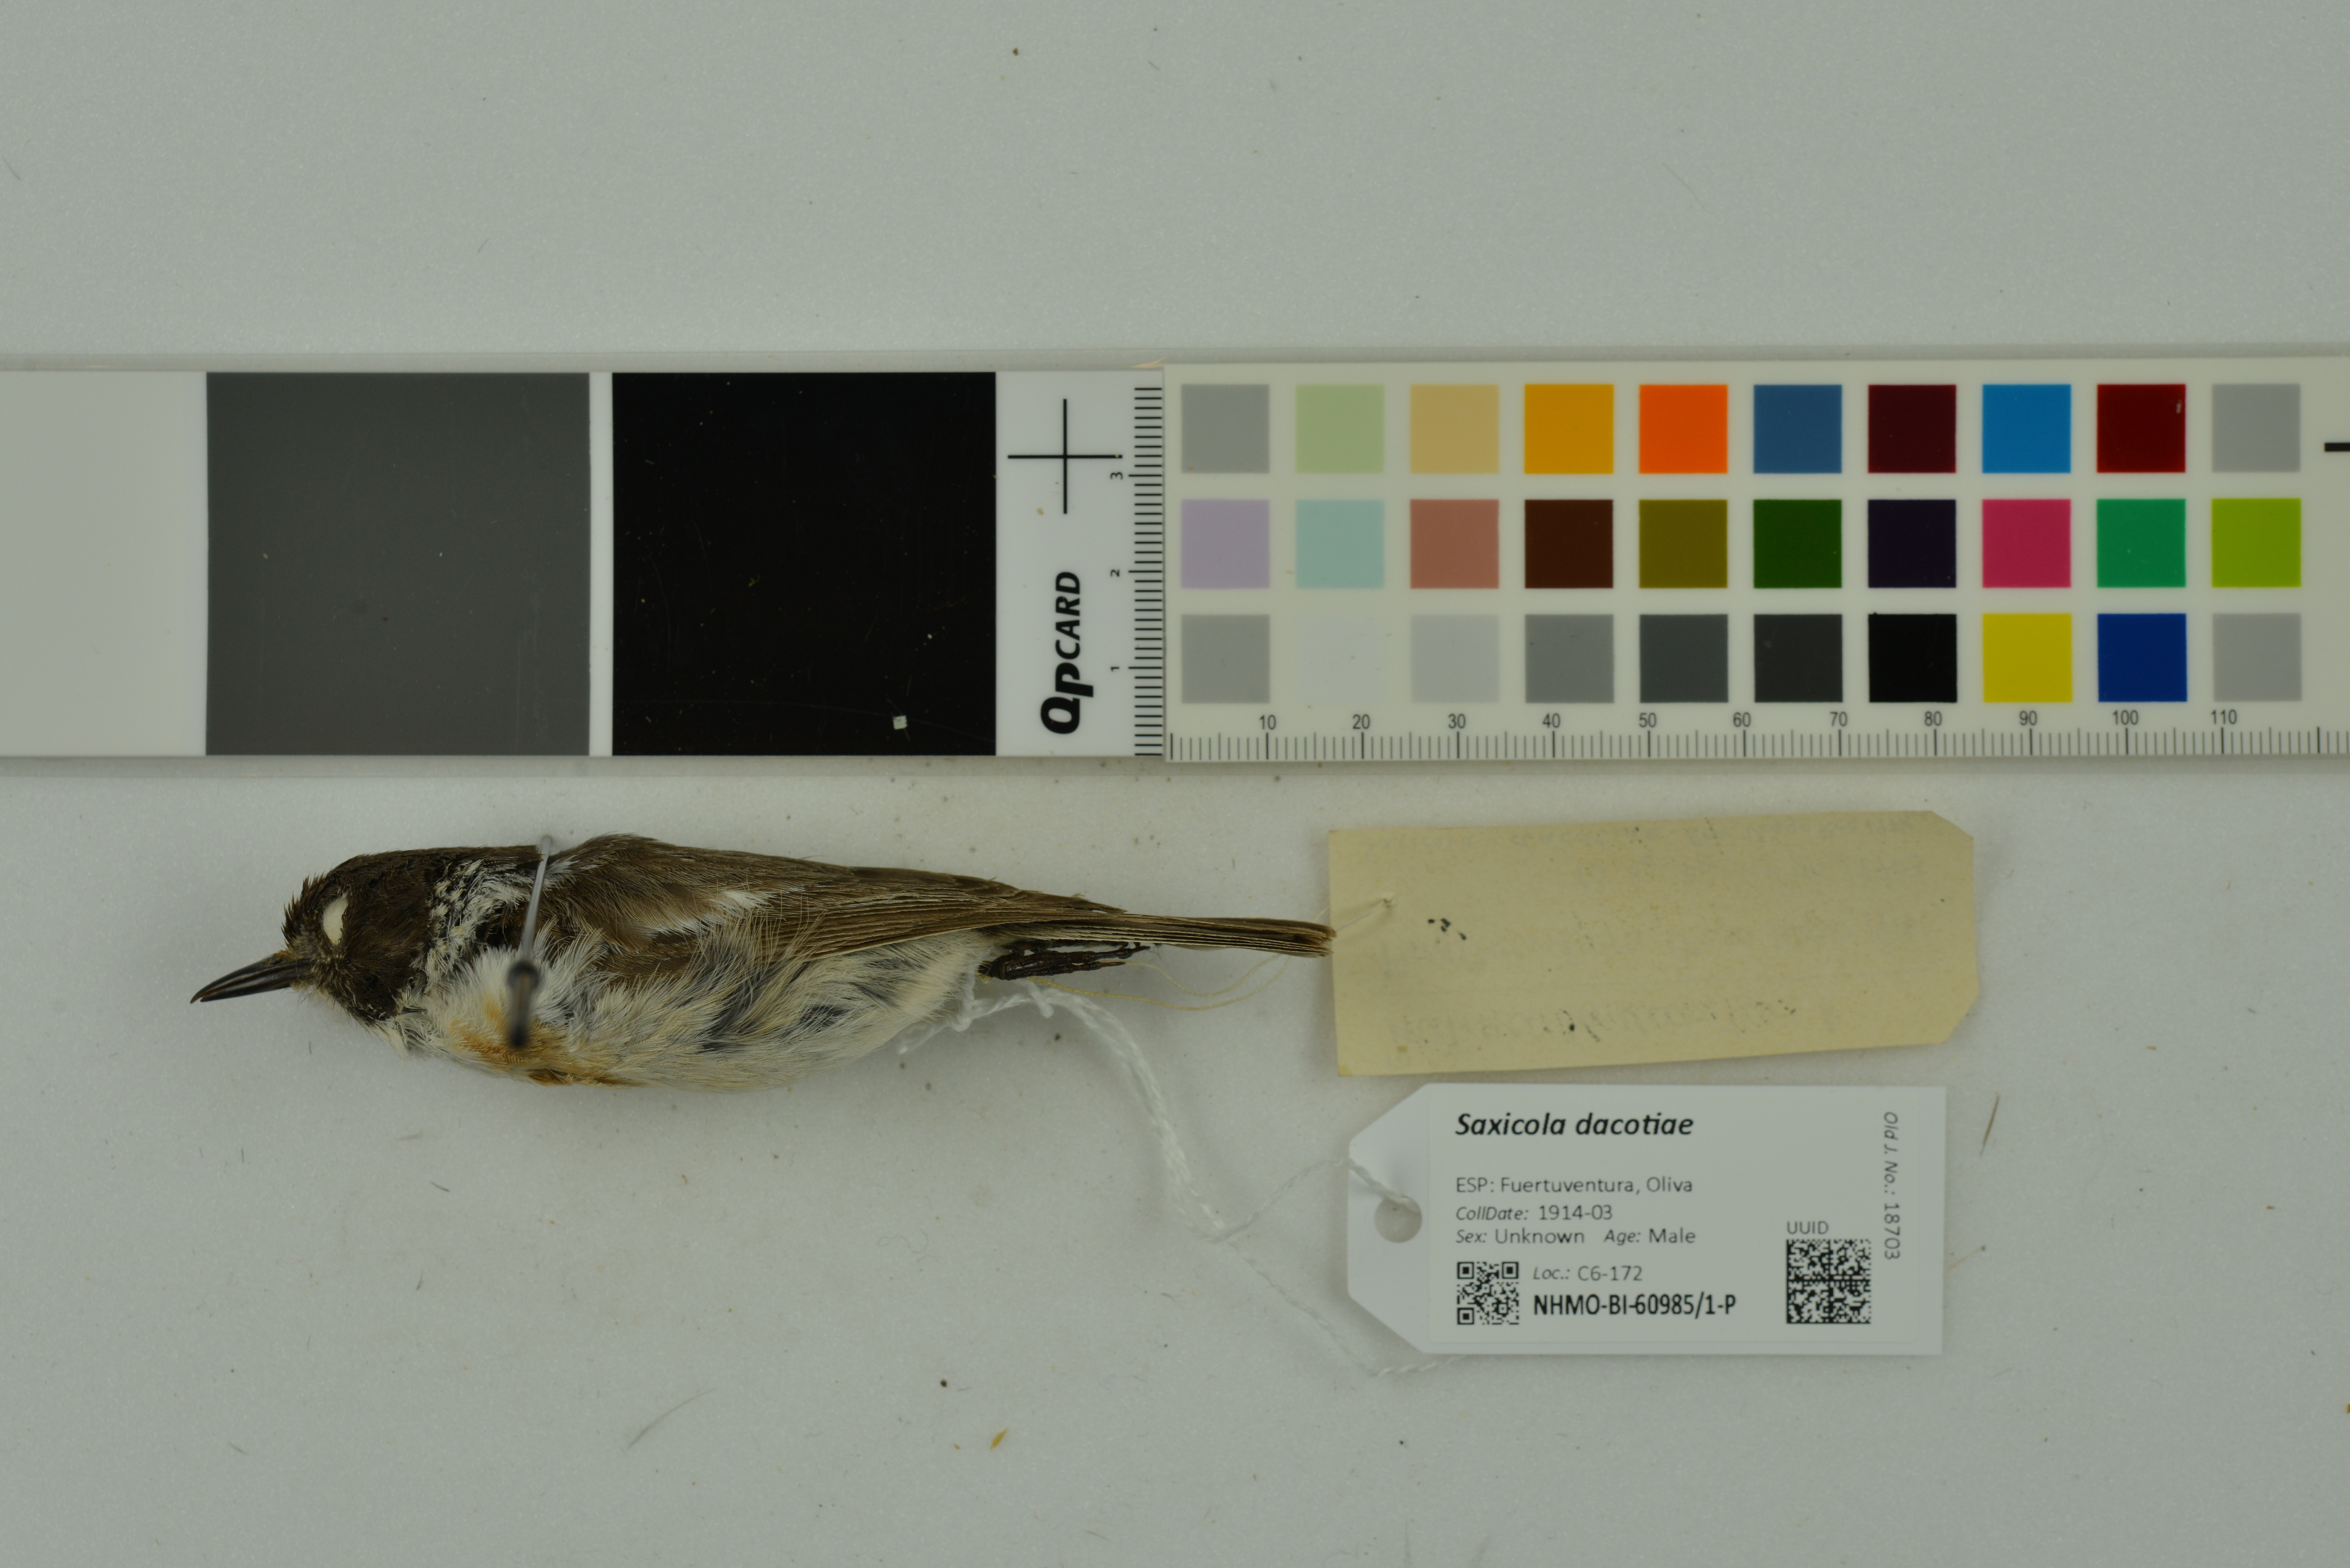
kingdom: Animalia
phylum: Chordata
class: Aves
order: Passeriformes
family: Muscicapidae
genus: Saxicola
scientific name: Saxicola dacotiae
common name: Canary islands stonechat
